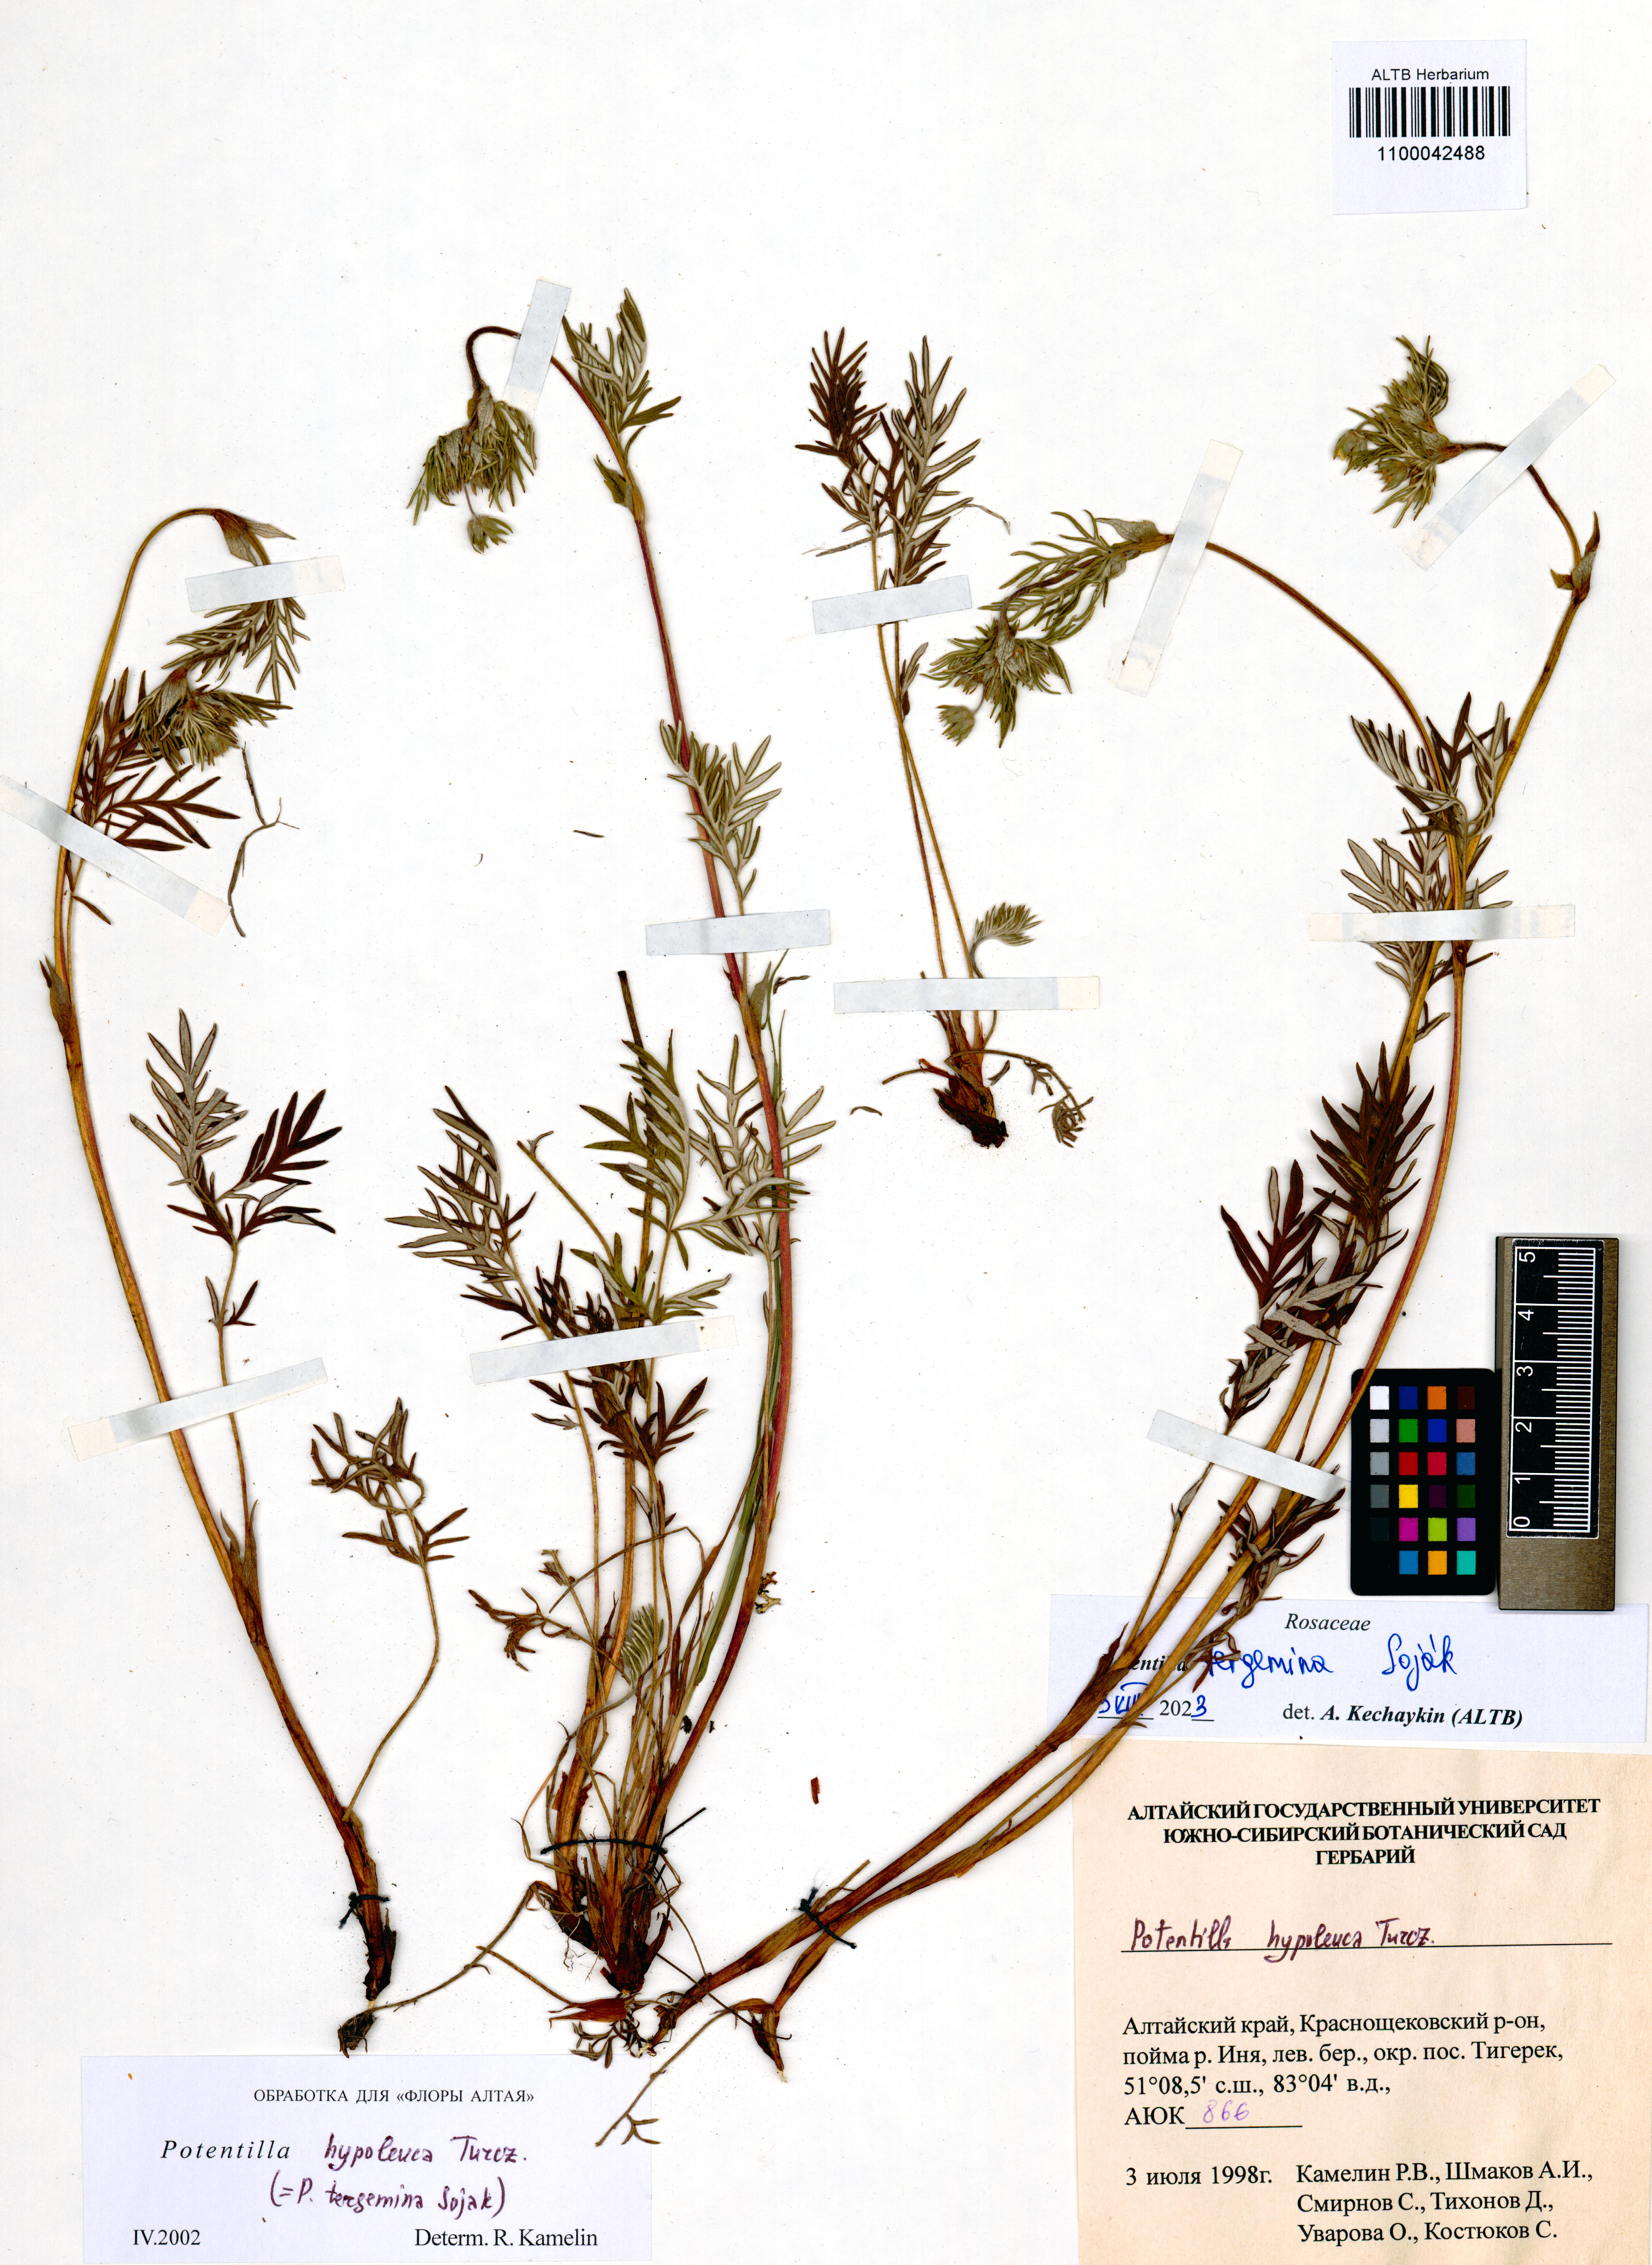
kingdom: Plantae
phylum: Tracheophyta
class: Magnoliopsida
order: Rosales
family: Rosaceae
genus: Potentilla
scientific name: Potentilla tergemina
